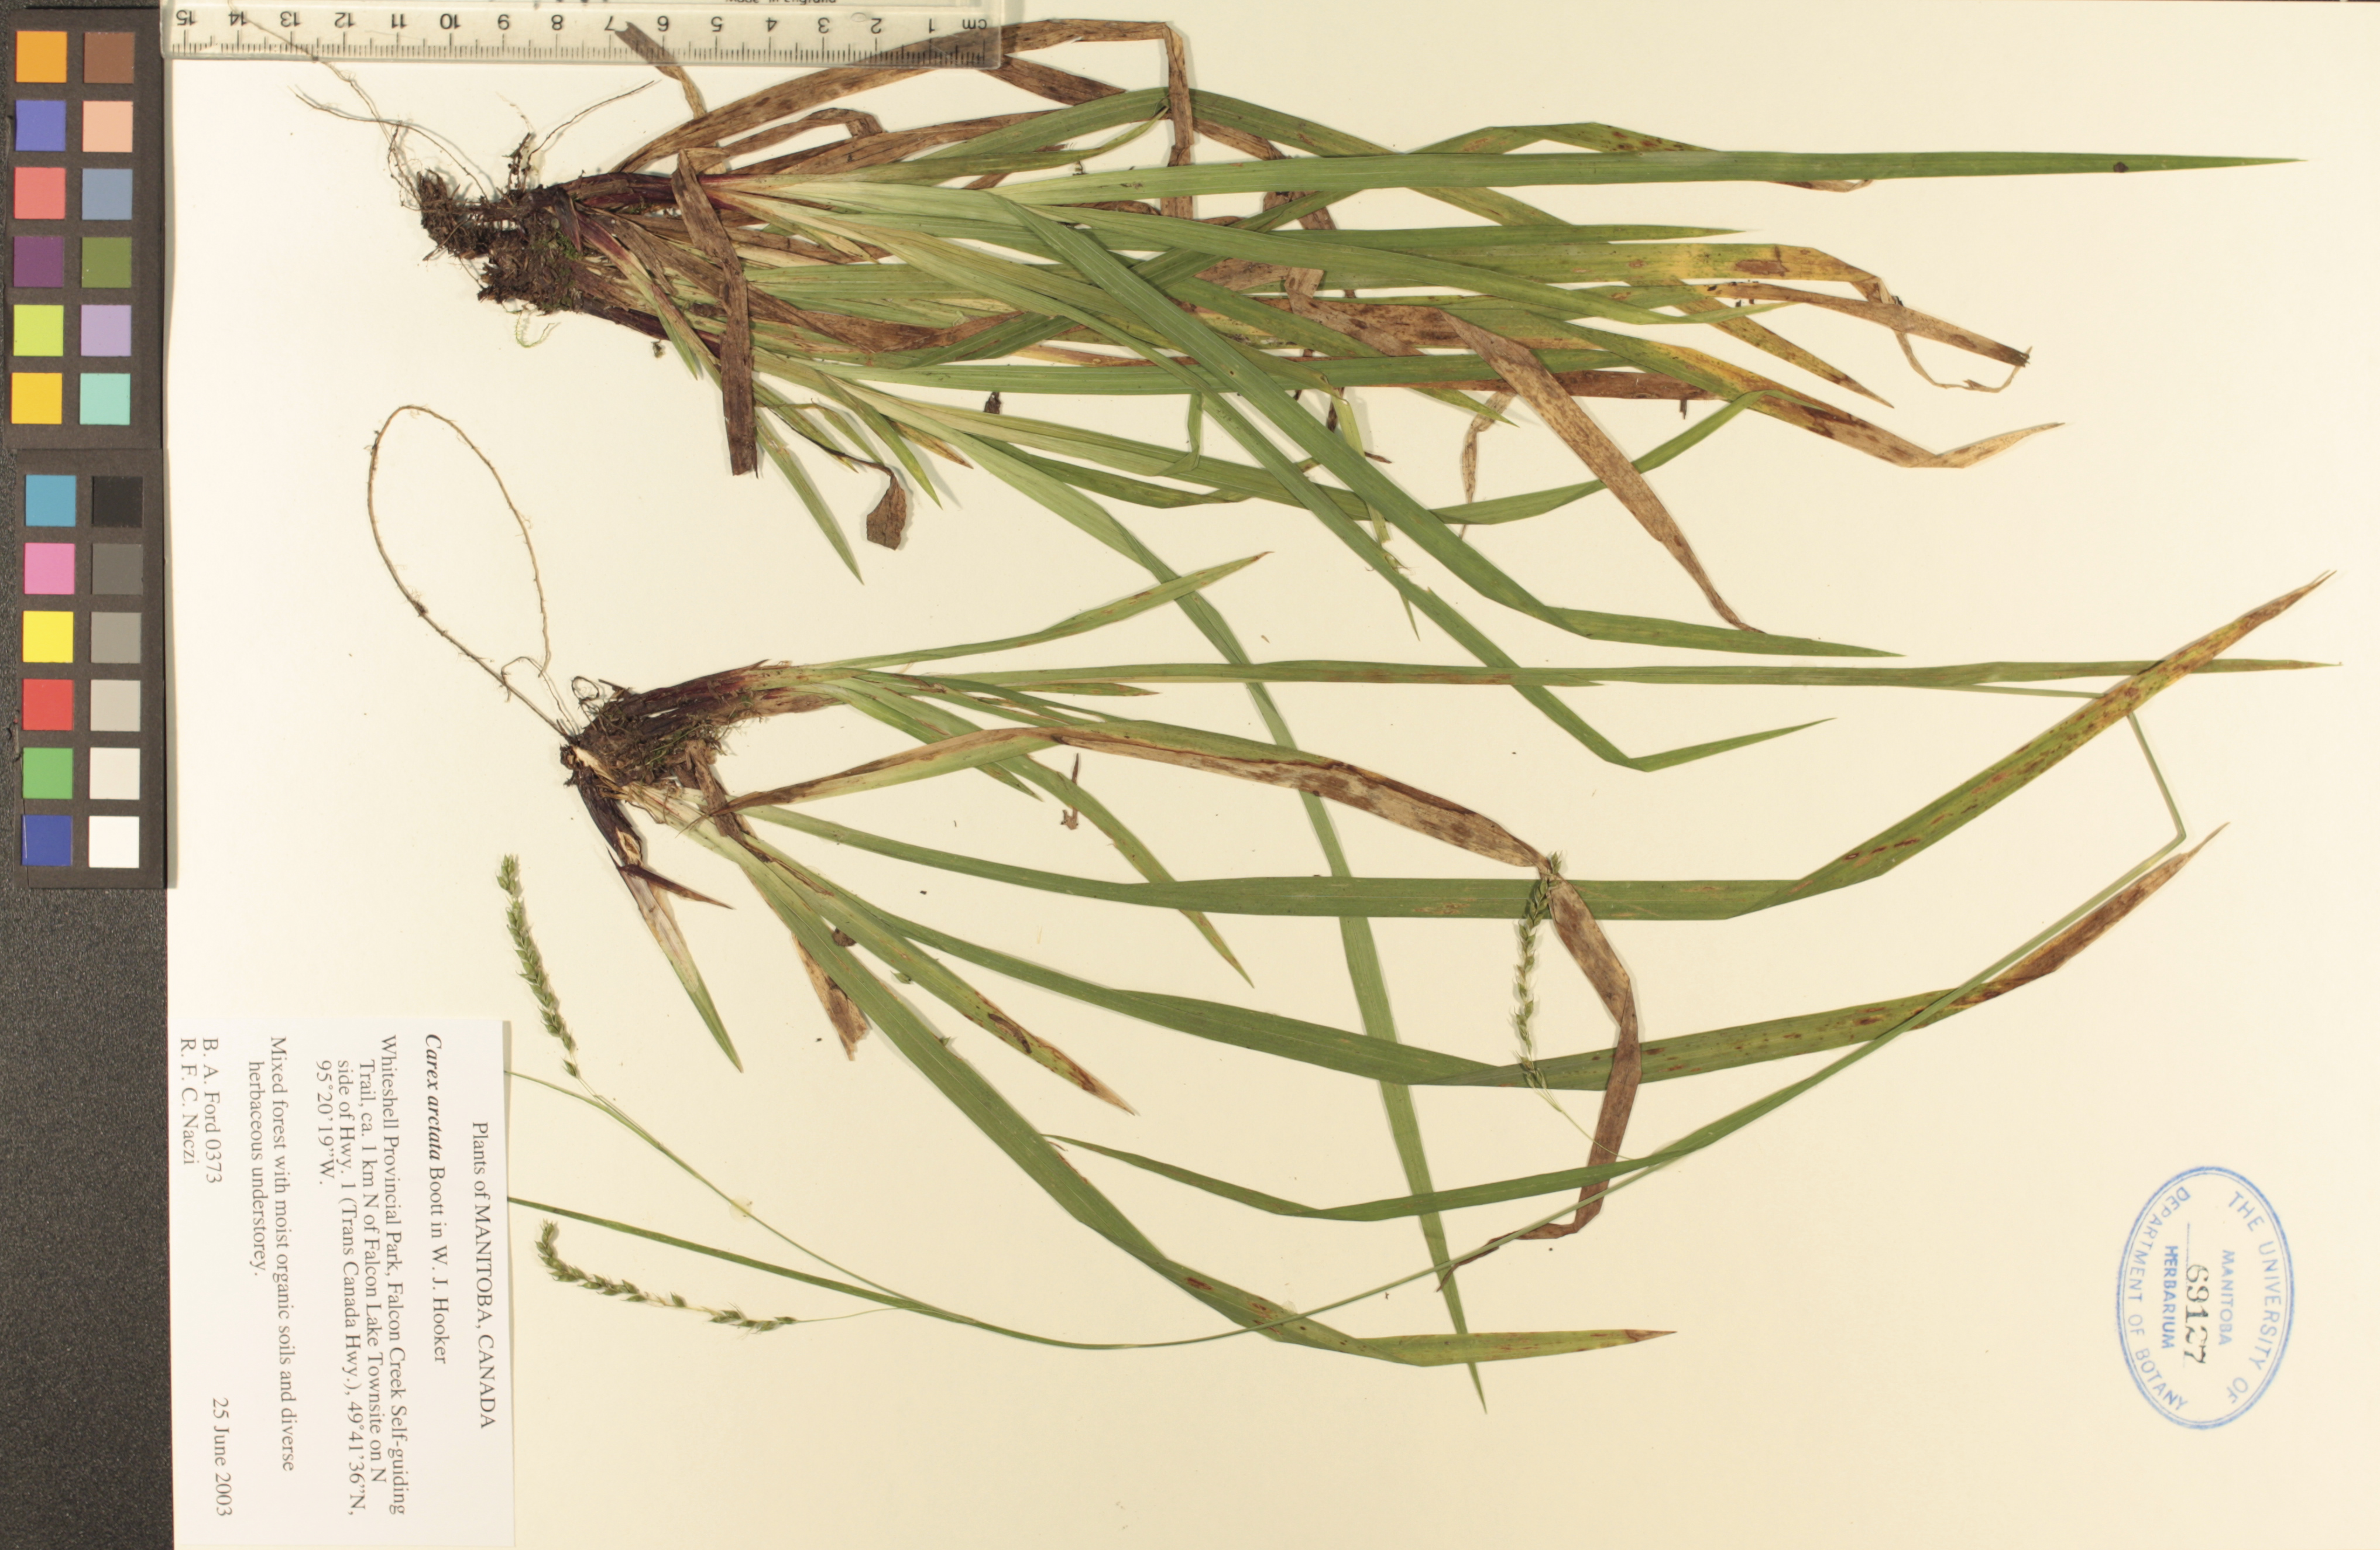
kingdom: Plantae
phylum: Tracheophyta
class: Liliopsida
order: Poales
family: Cyperaceae
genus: Carex
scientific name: Carex arctata
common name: Black sedge
